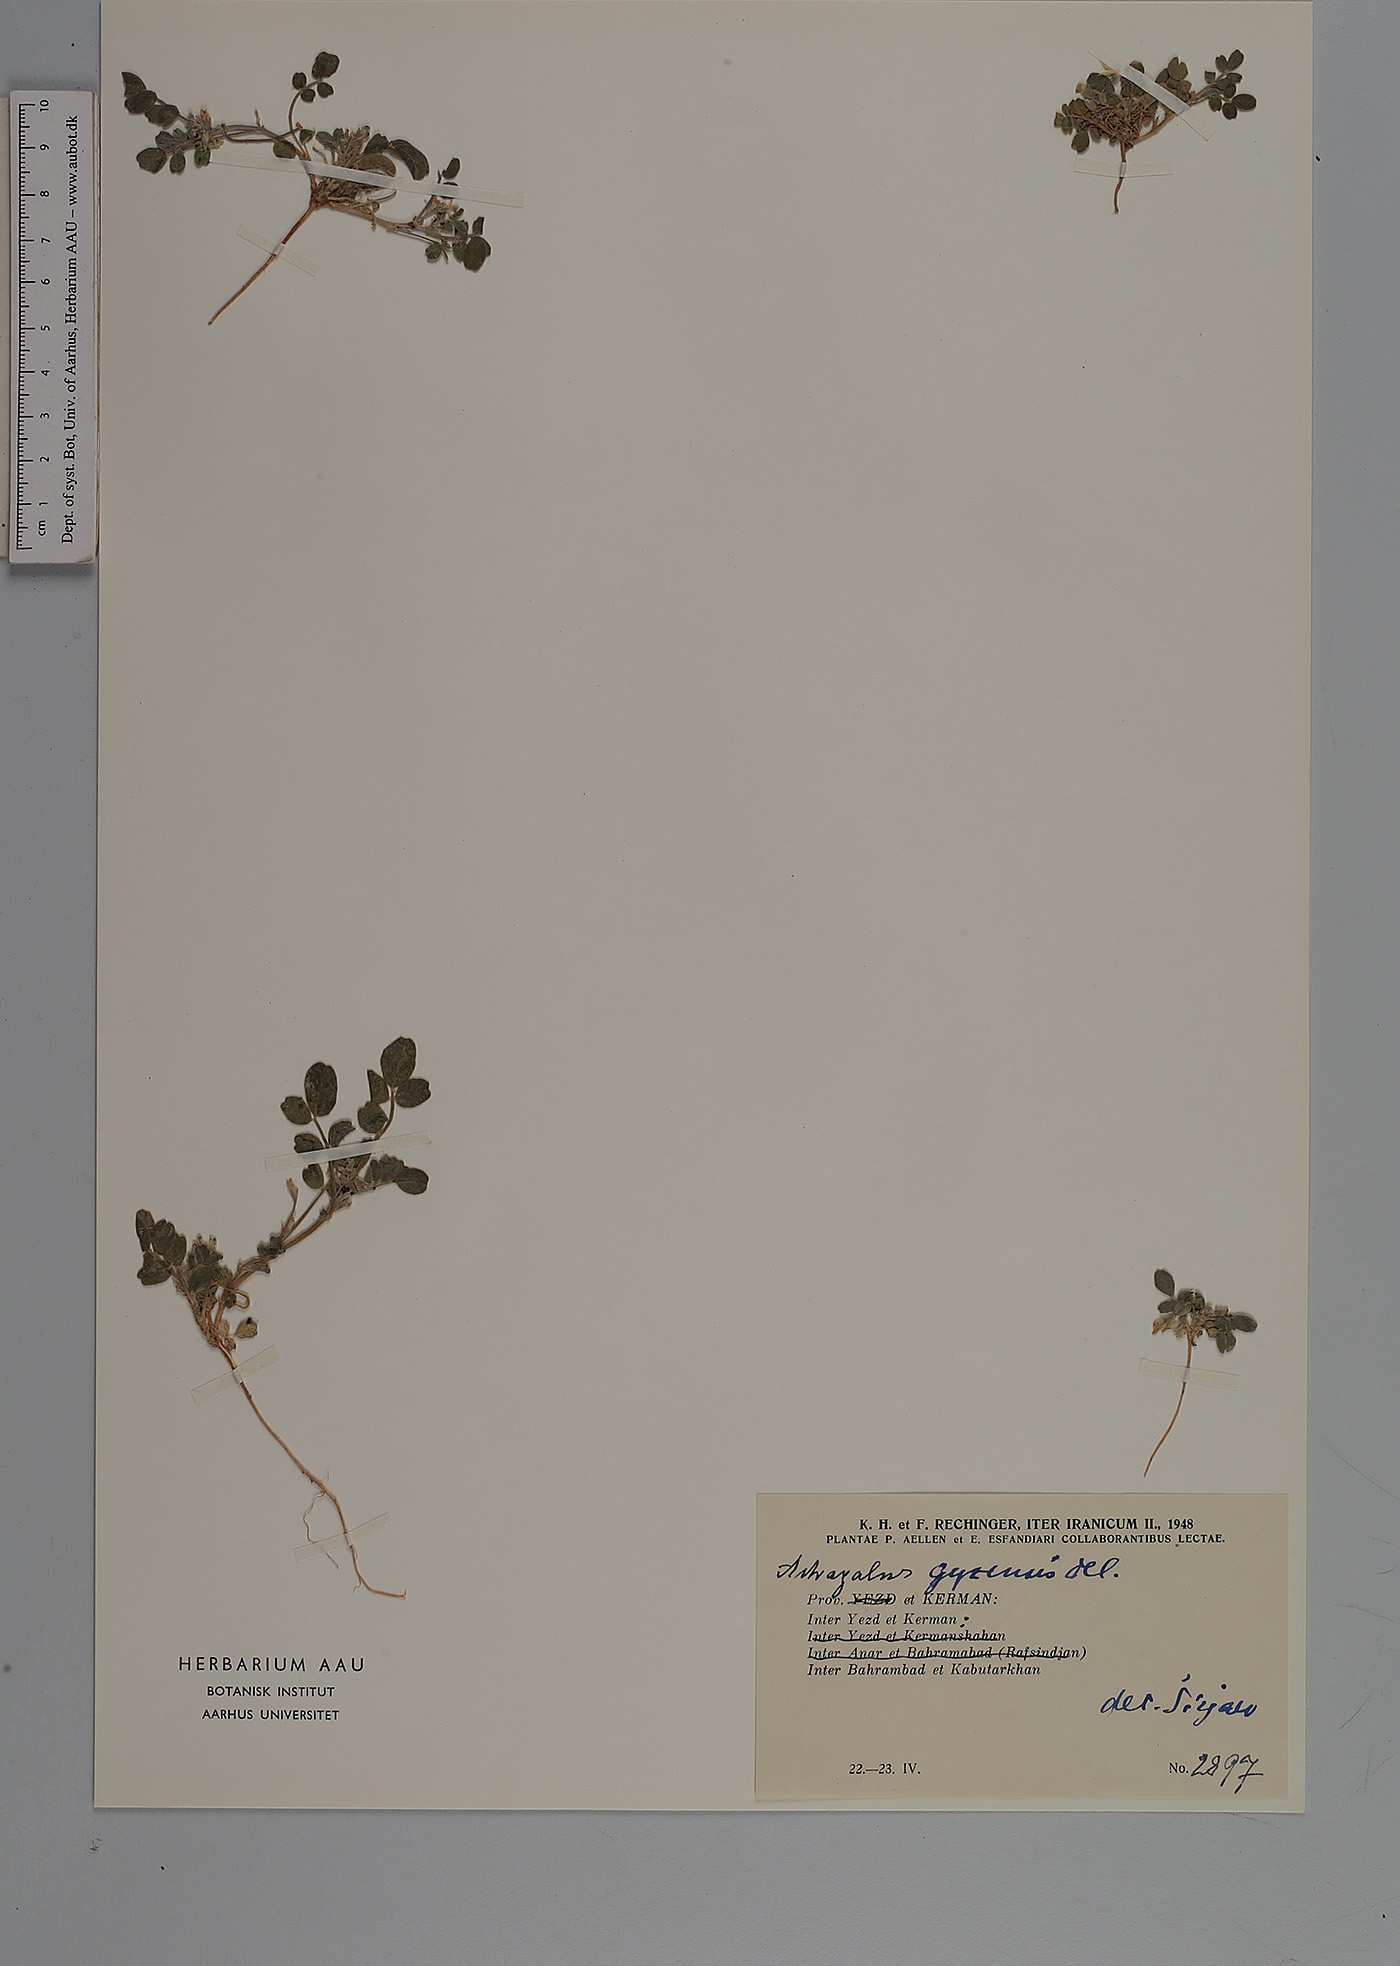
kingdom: Plantae
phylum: Tracheophyta
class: Magnoliopsida
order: Fabales
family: Fabaceae
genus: Astragalus
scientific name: Astragalus arpilobus
